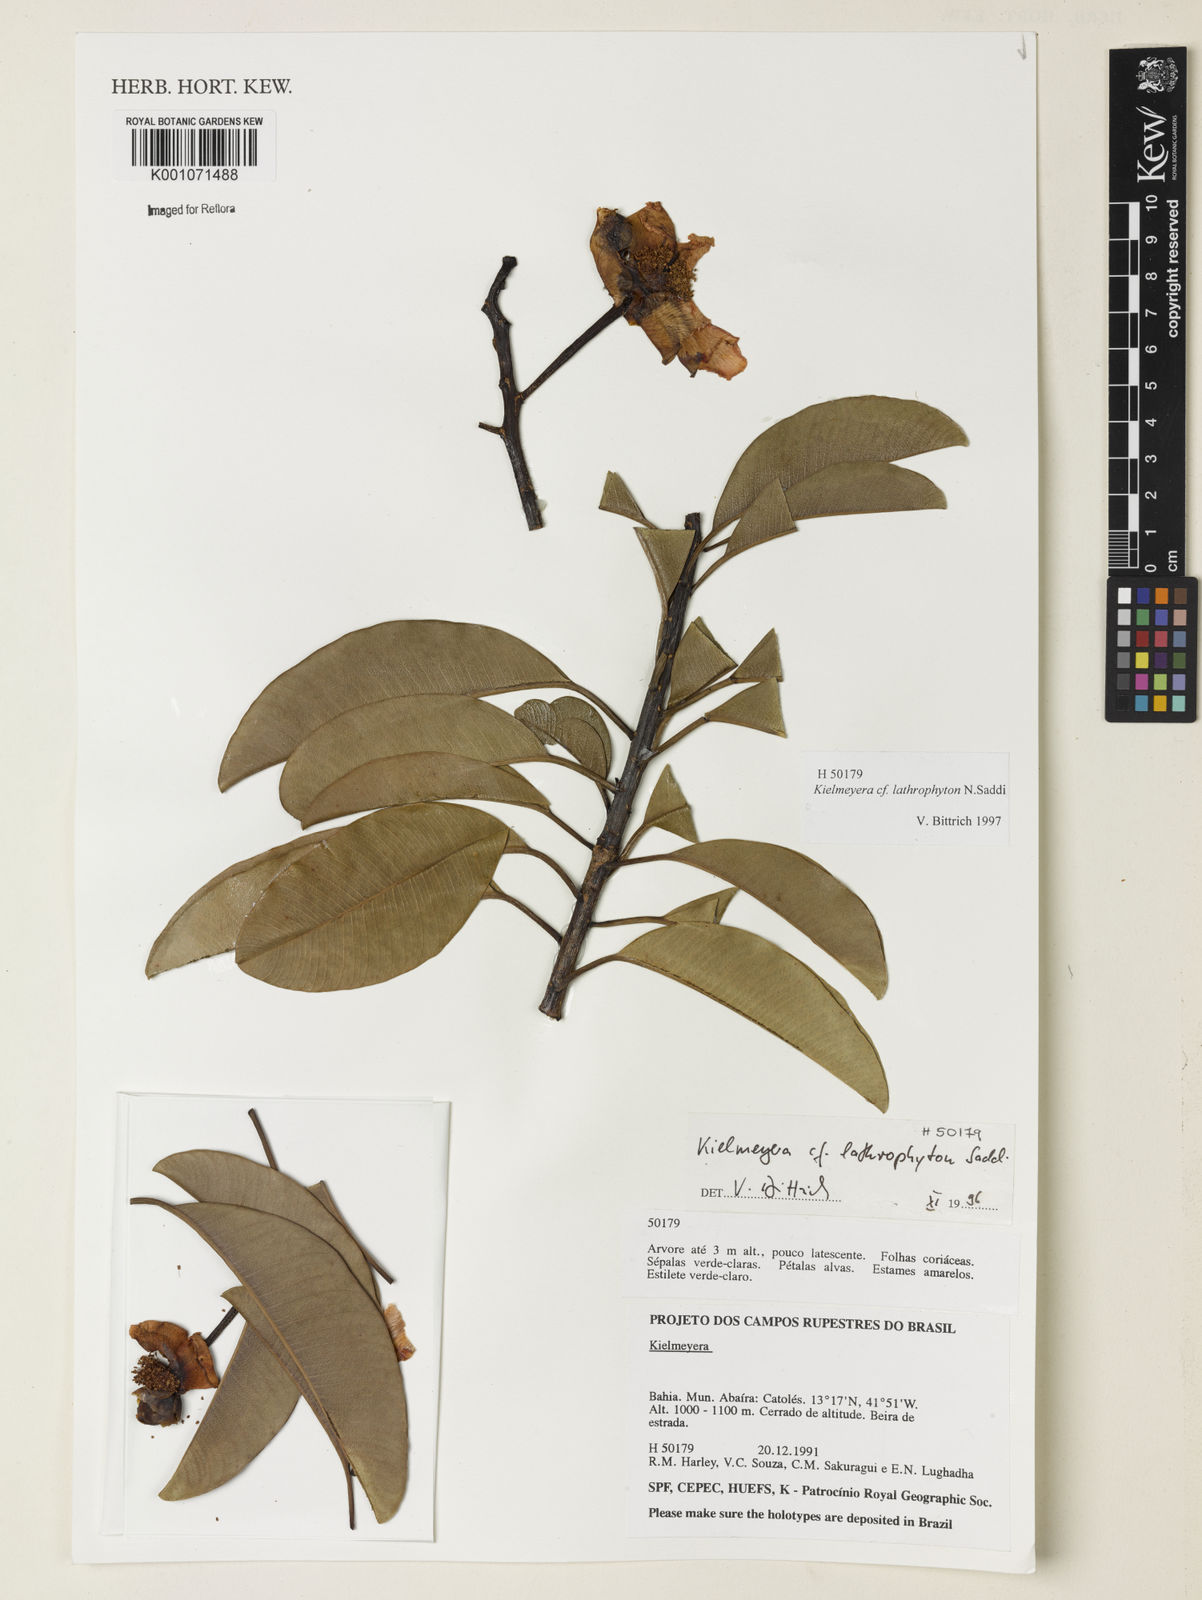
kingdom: Plantae
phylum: Tracheophyta
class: Magnoliopsida
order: Malpighiales
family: Calophyllaceae
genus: Kielmeyera
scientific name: Kielmeyera lathrophyton
